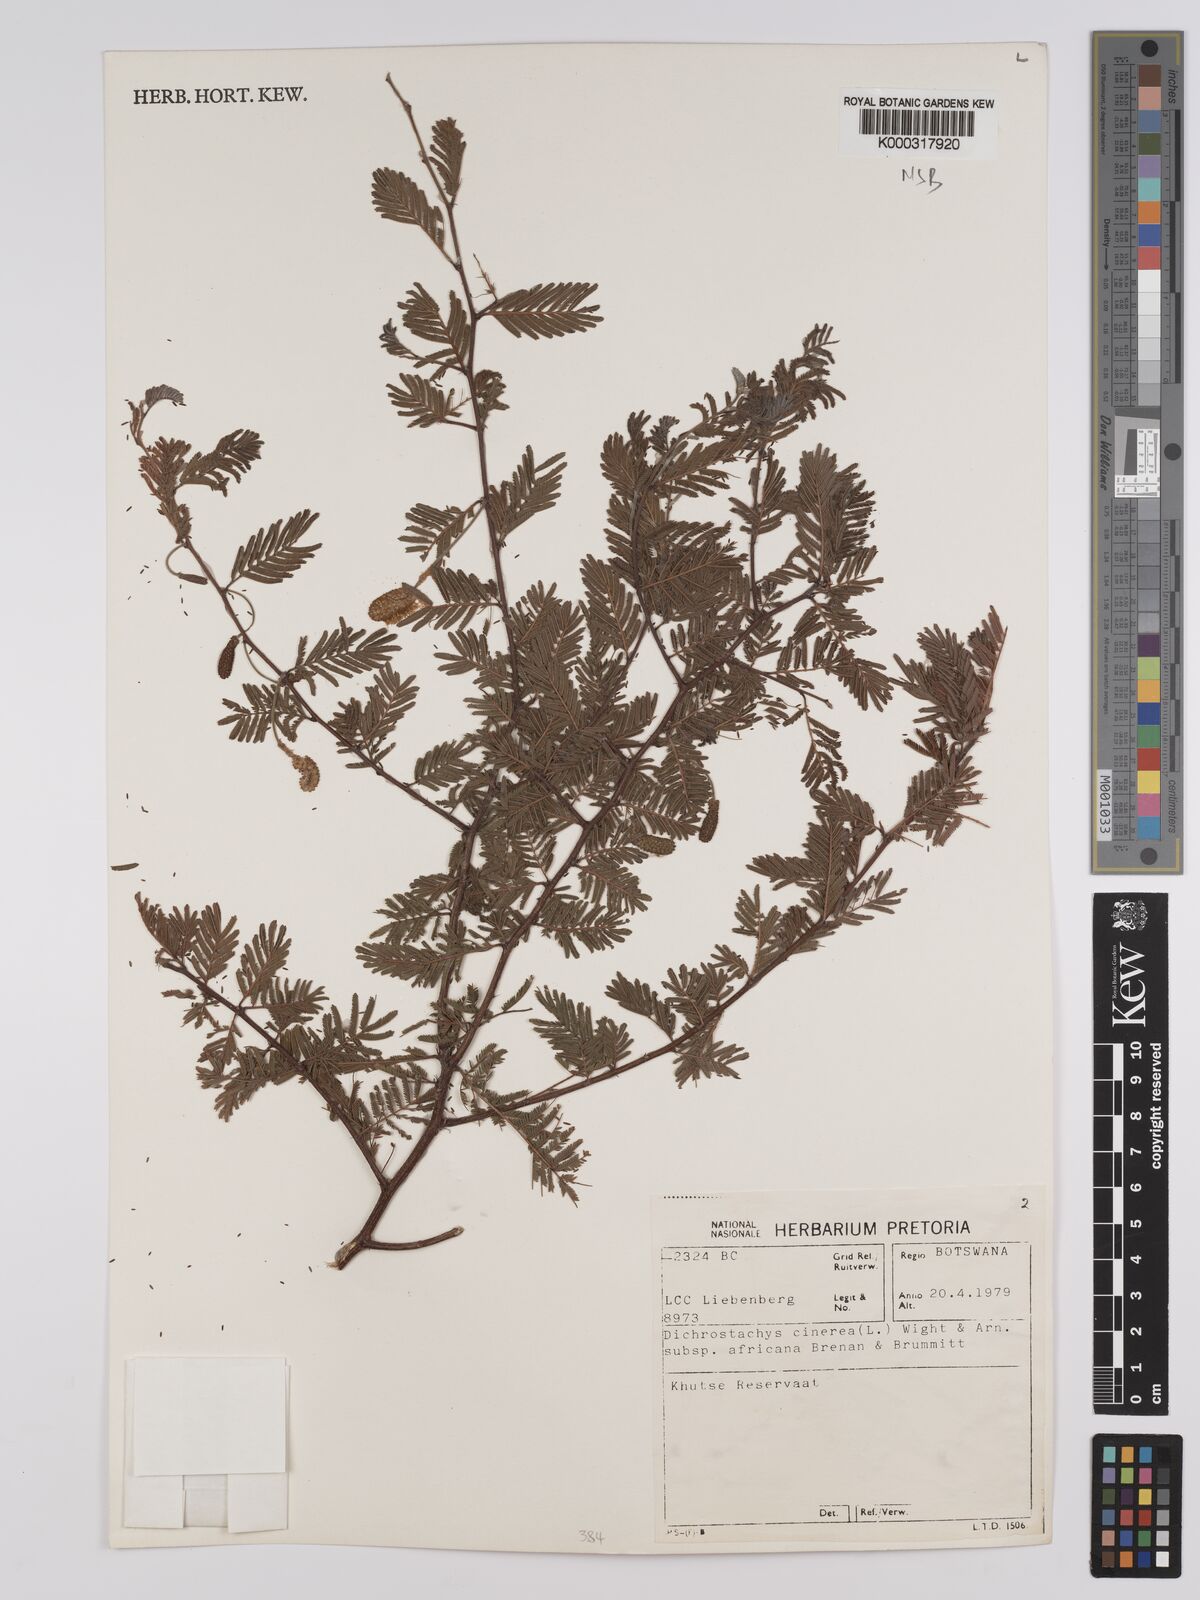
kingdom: Plantae
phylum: Tracheophyta
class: Magnoliopsida
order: Fabales
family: Fabaceae
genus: Dichrostachys
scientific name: Dichrostachys cinerea
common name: Sicklebush
